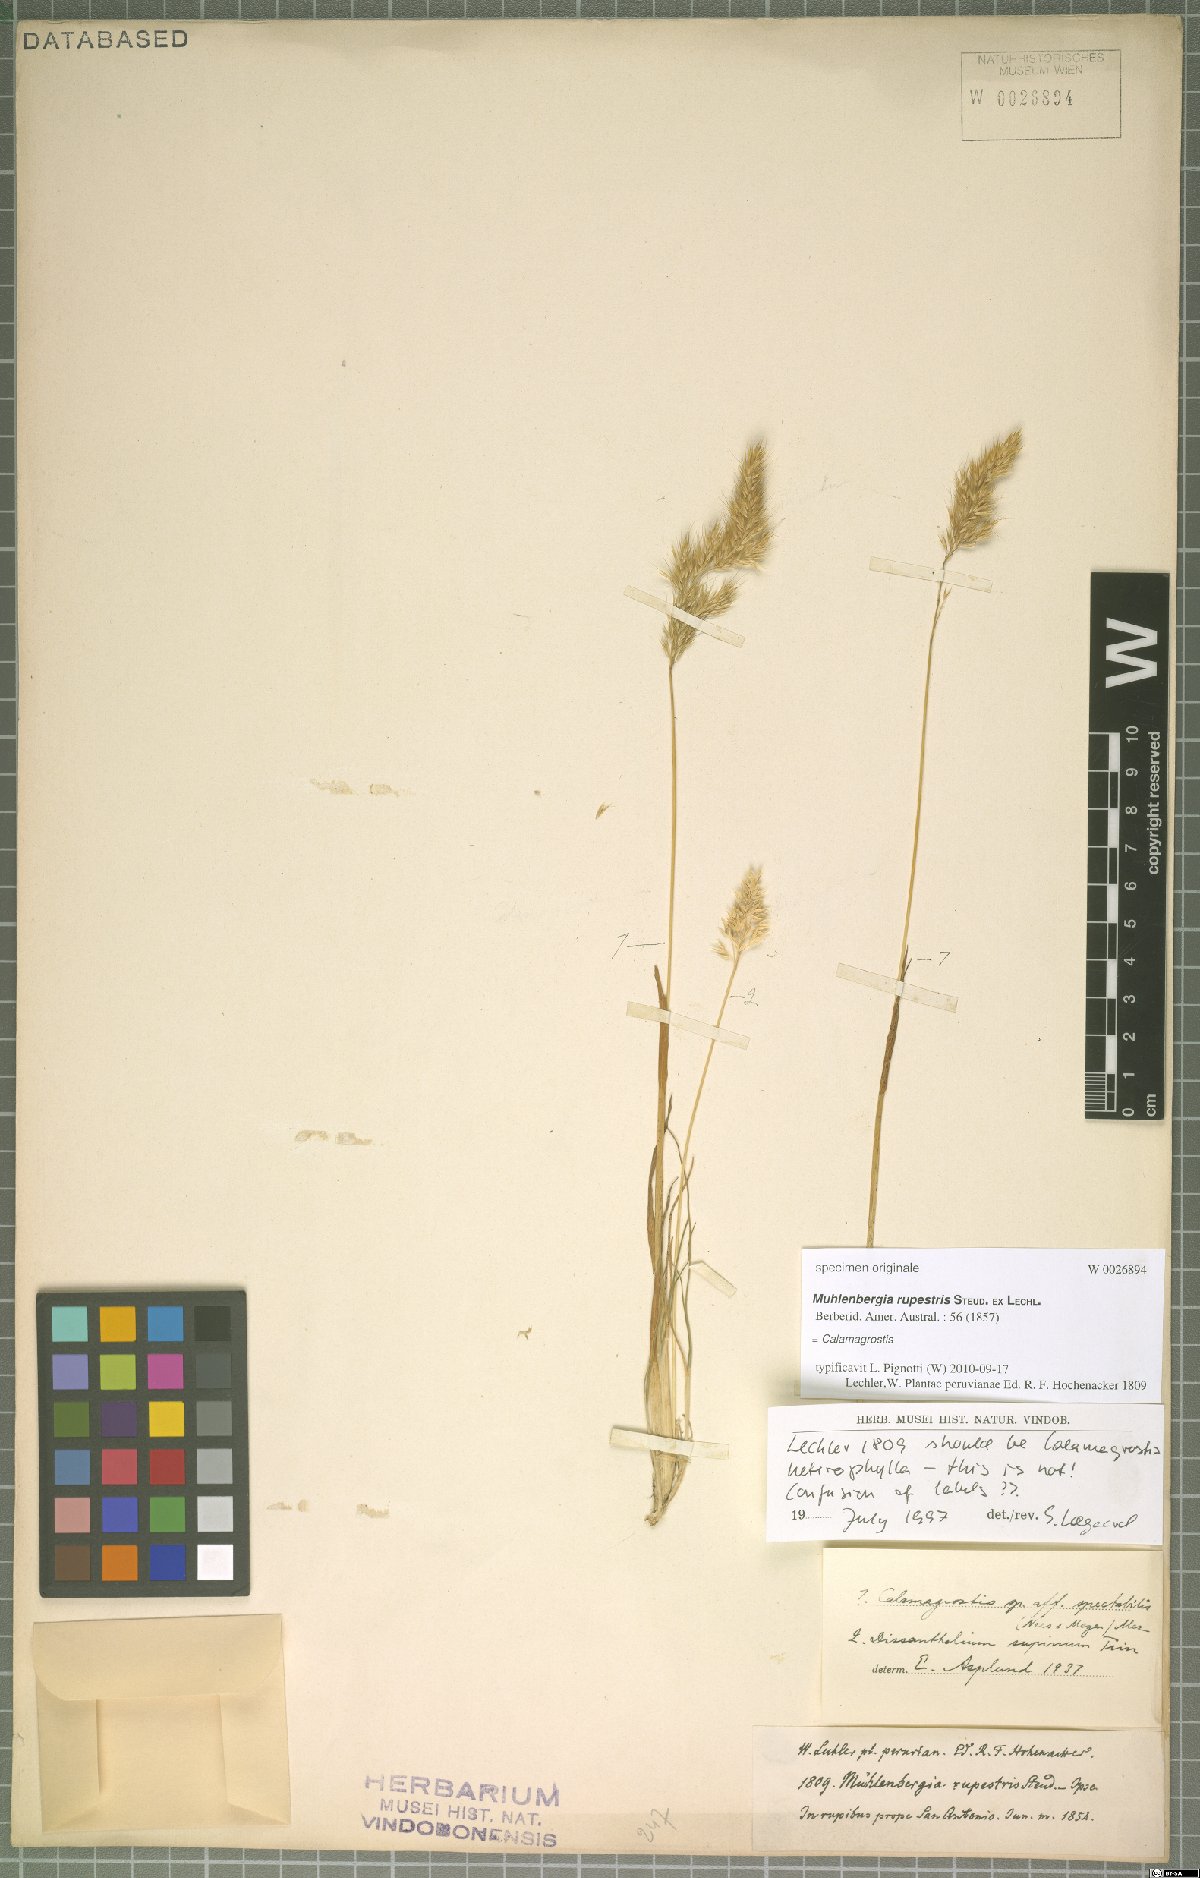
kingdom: Plantae
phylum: Tracheophyta
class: Liliopsida
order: Poales
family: Poaceae
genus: Calamagrostis
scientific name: Calamagrostis
